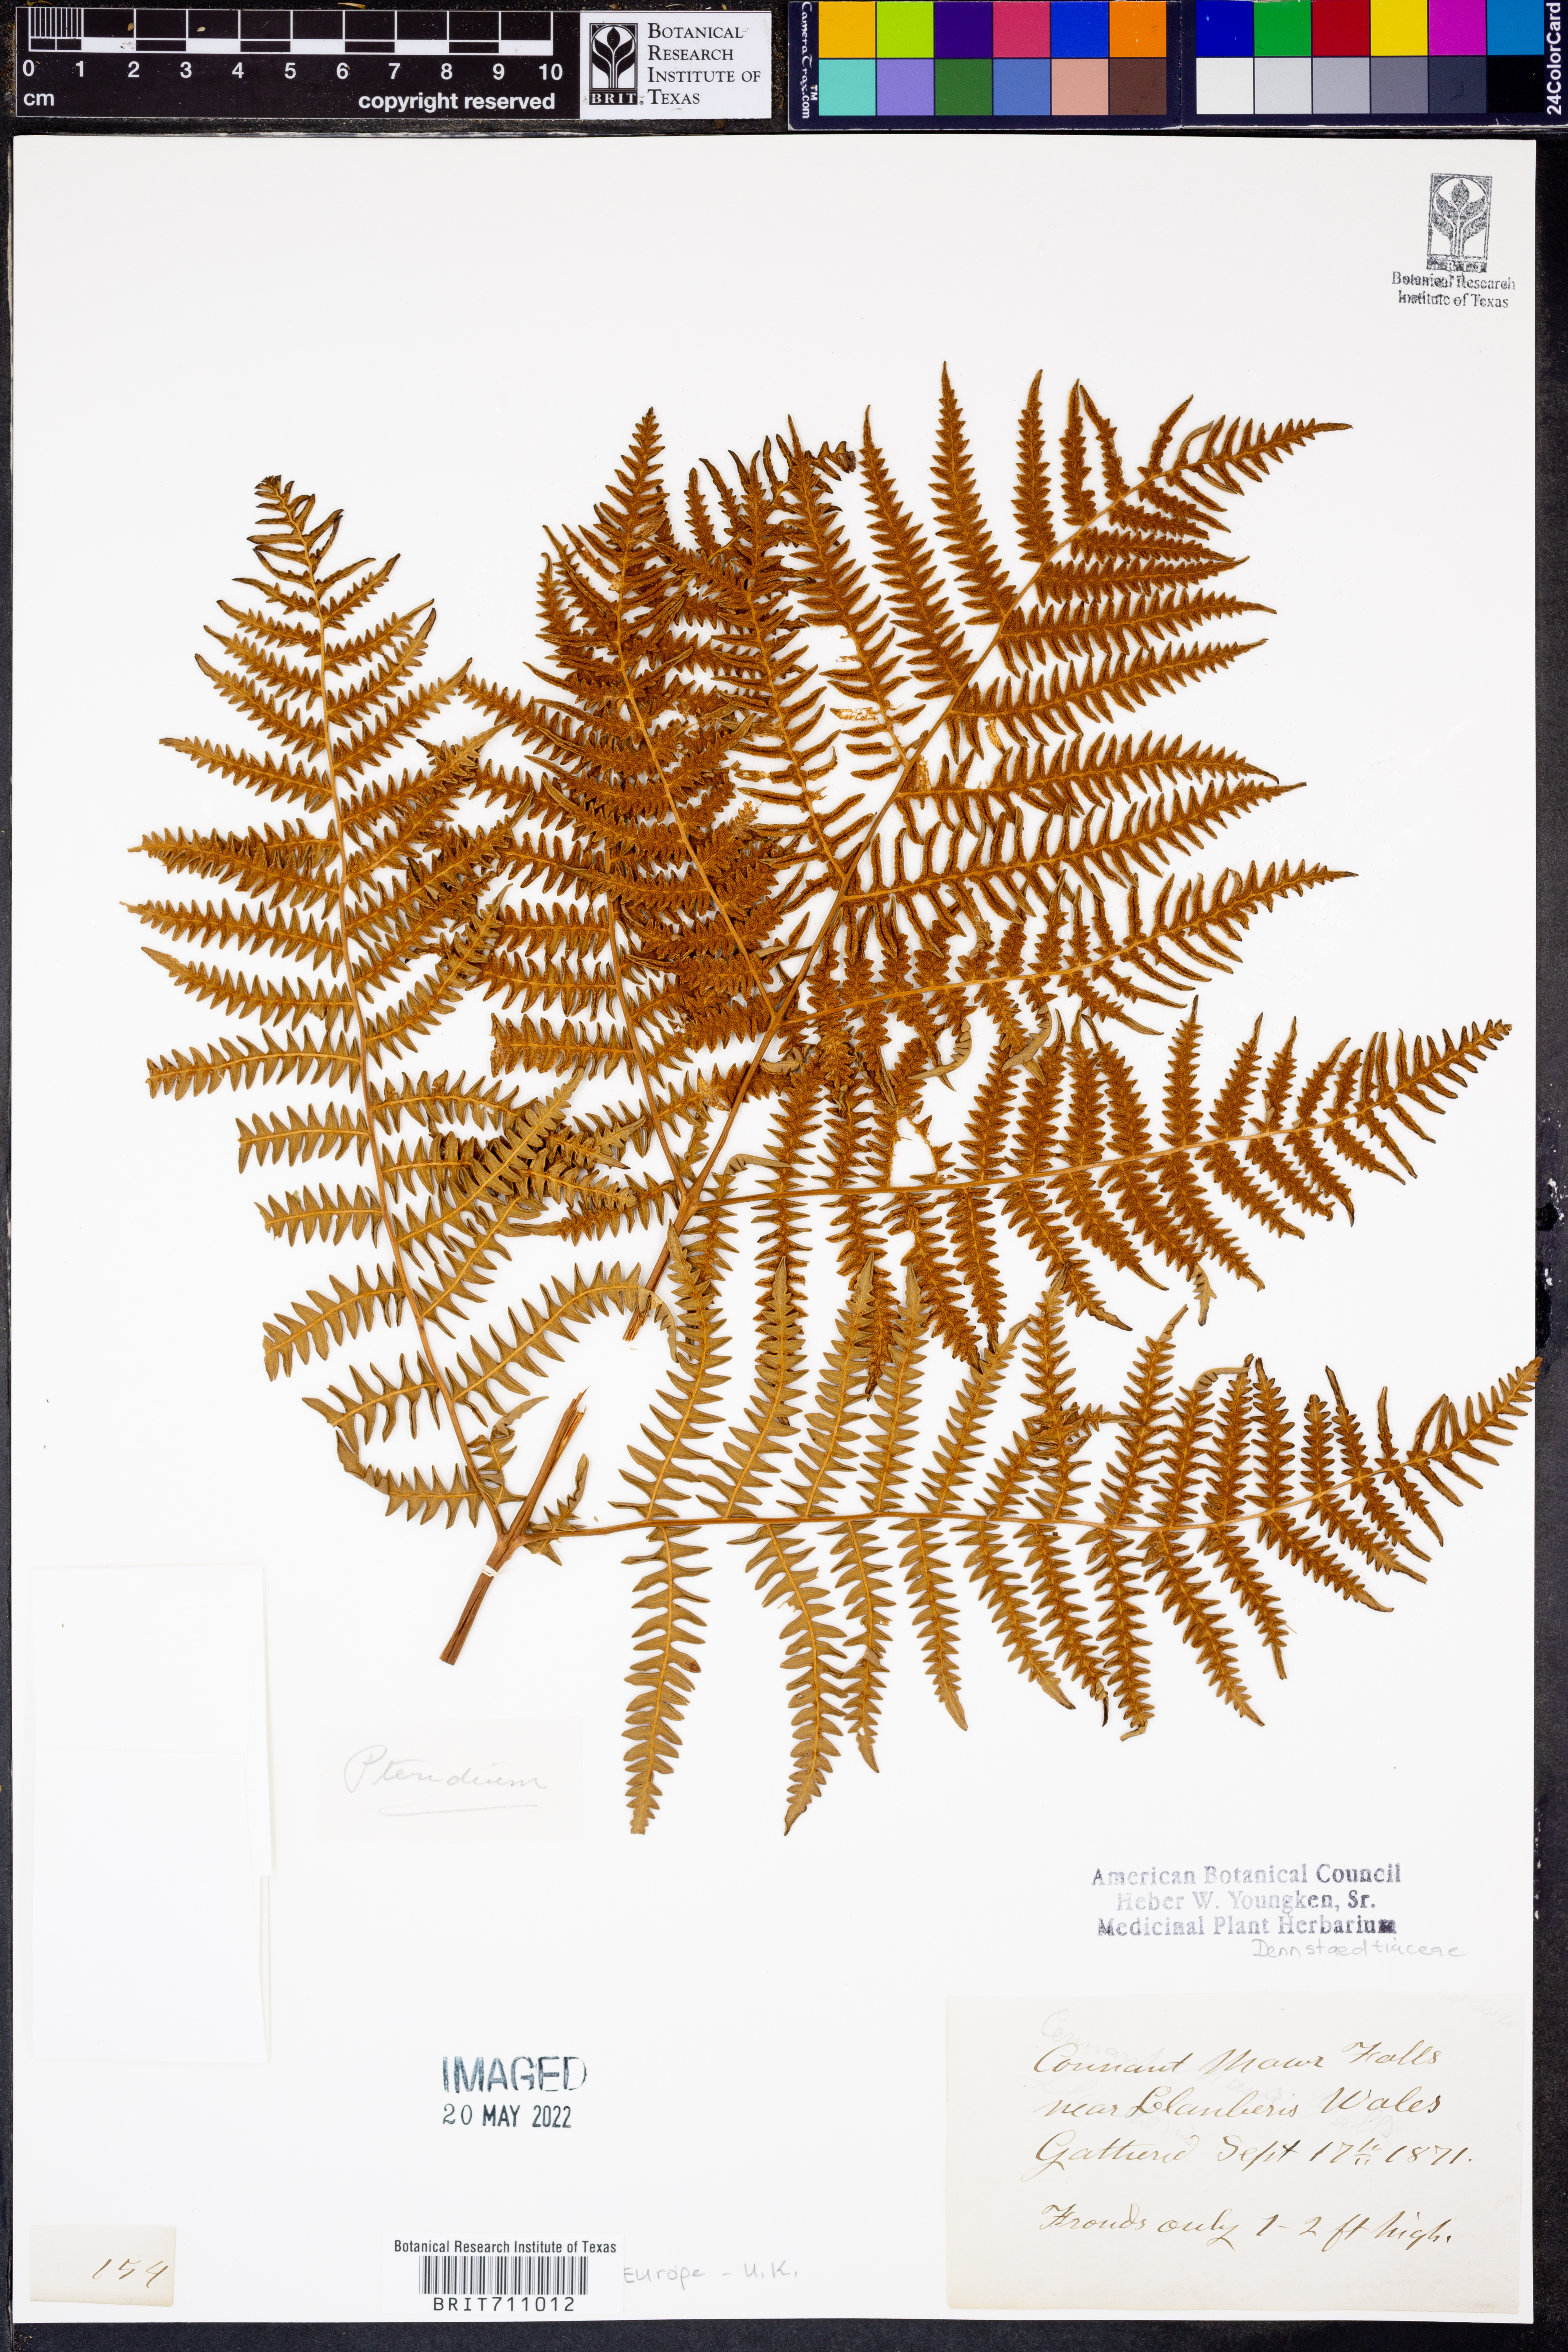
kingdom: Plantae
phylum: Tracheophyta
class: Polypodiopsida
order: Polypodiales
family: Dennstaedtiaceae
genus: Pteridium
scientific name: Pteridium
